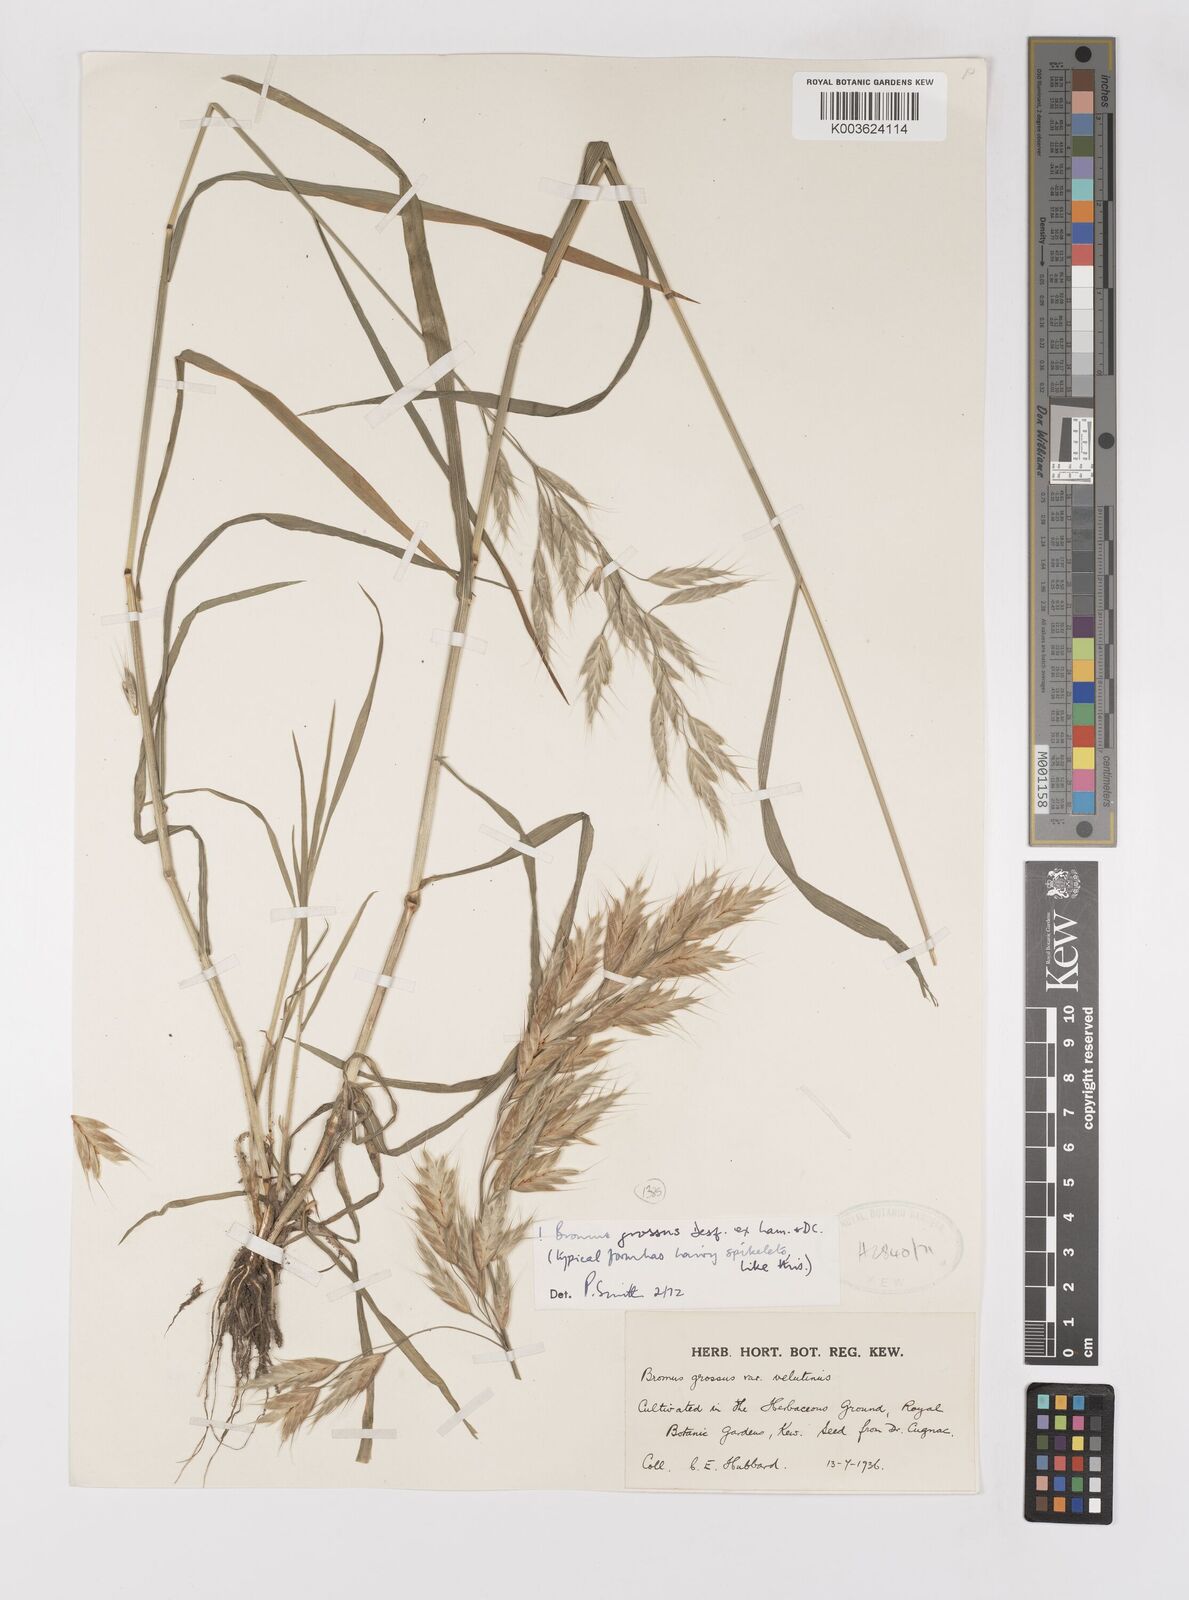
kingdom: Plantae
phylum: Tracheophyta
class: Liliopsida
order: Poales
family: Poaceae
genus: Bromus
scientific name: Bromus grossus
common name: Whiskered brome
